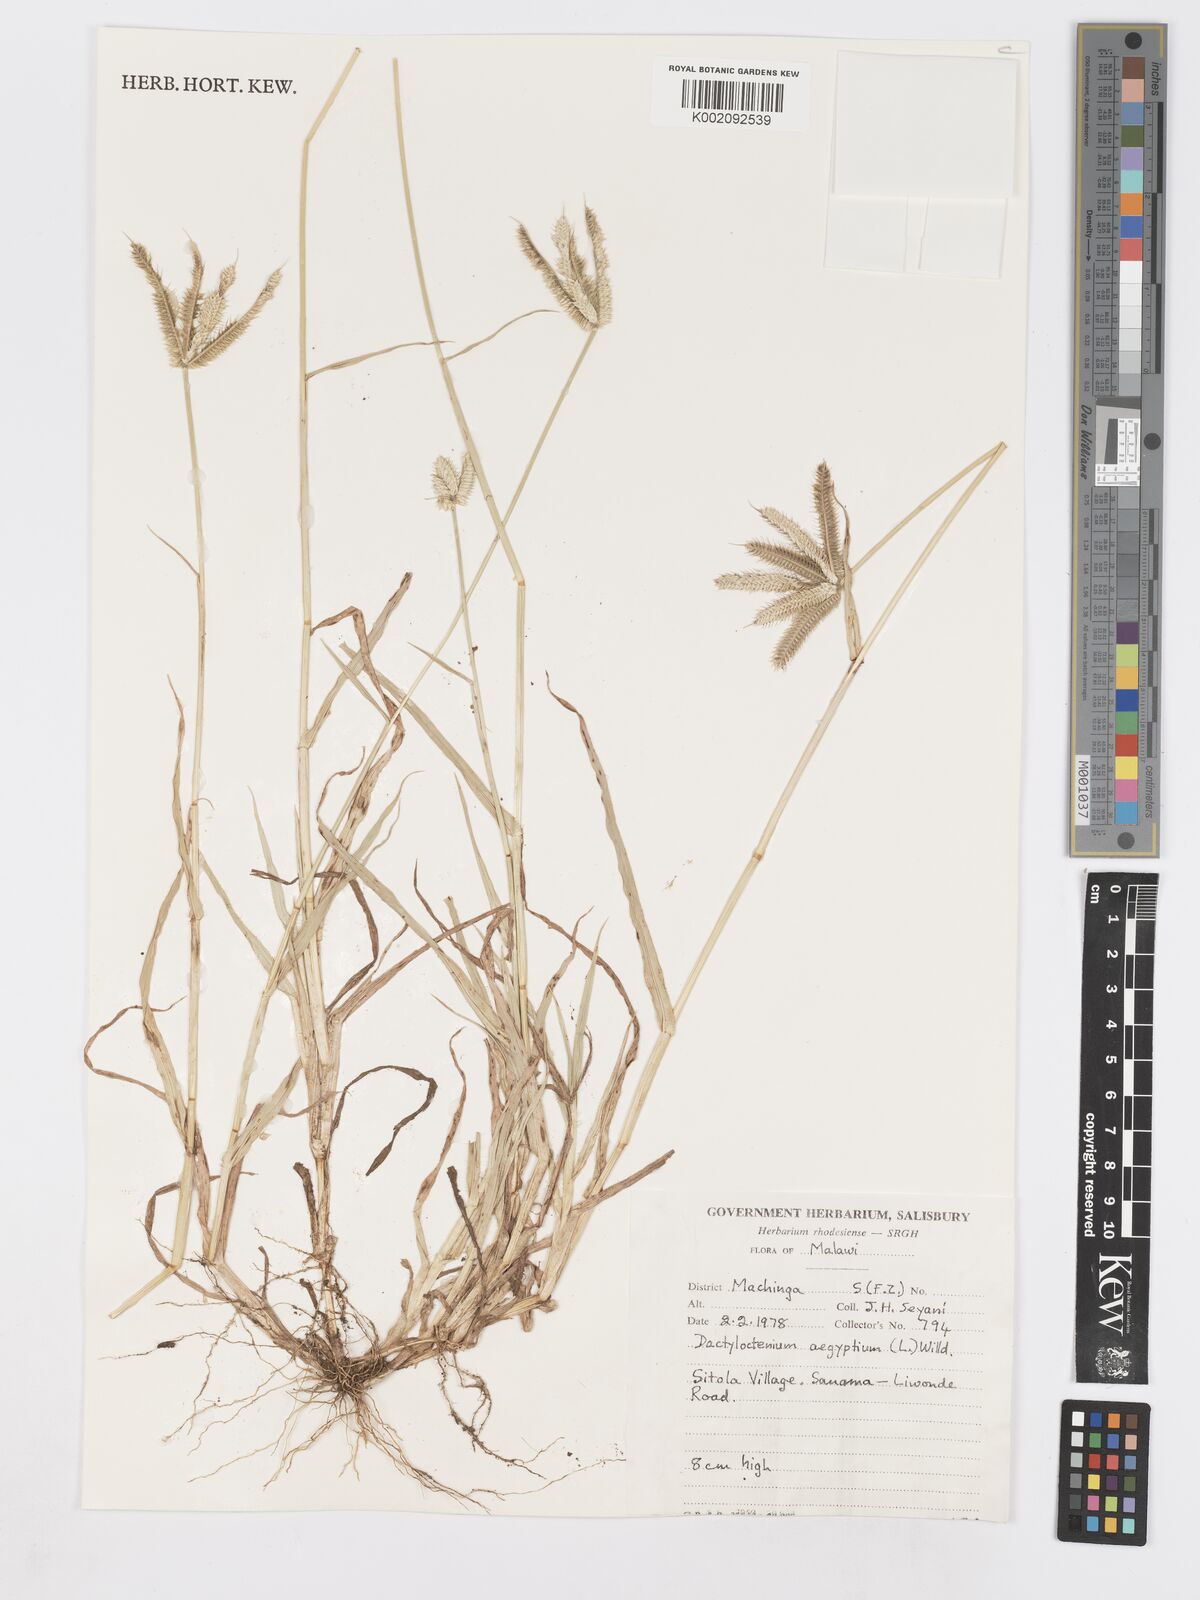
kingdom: Plantae
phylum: Tracheophyta
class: Liliopsida
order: Poales
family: Poaceae
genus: Dactyloctenium
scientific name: Dactyloctenium aegyptium
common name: Egyptian grass
